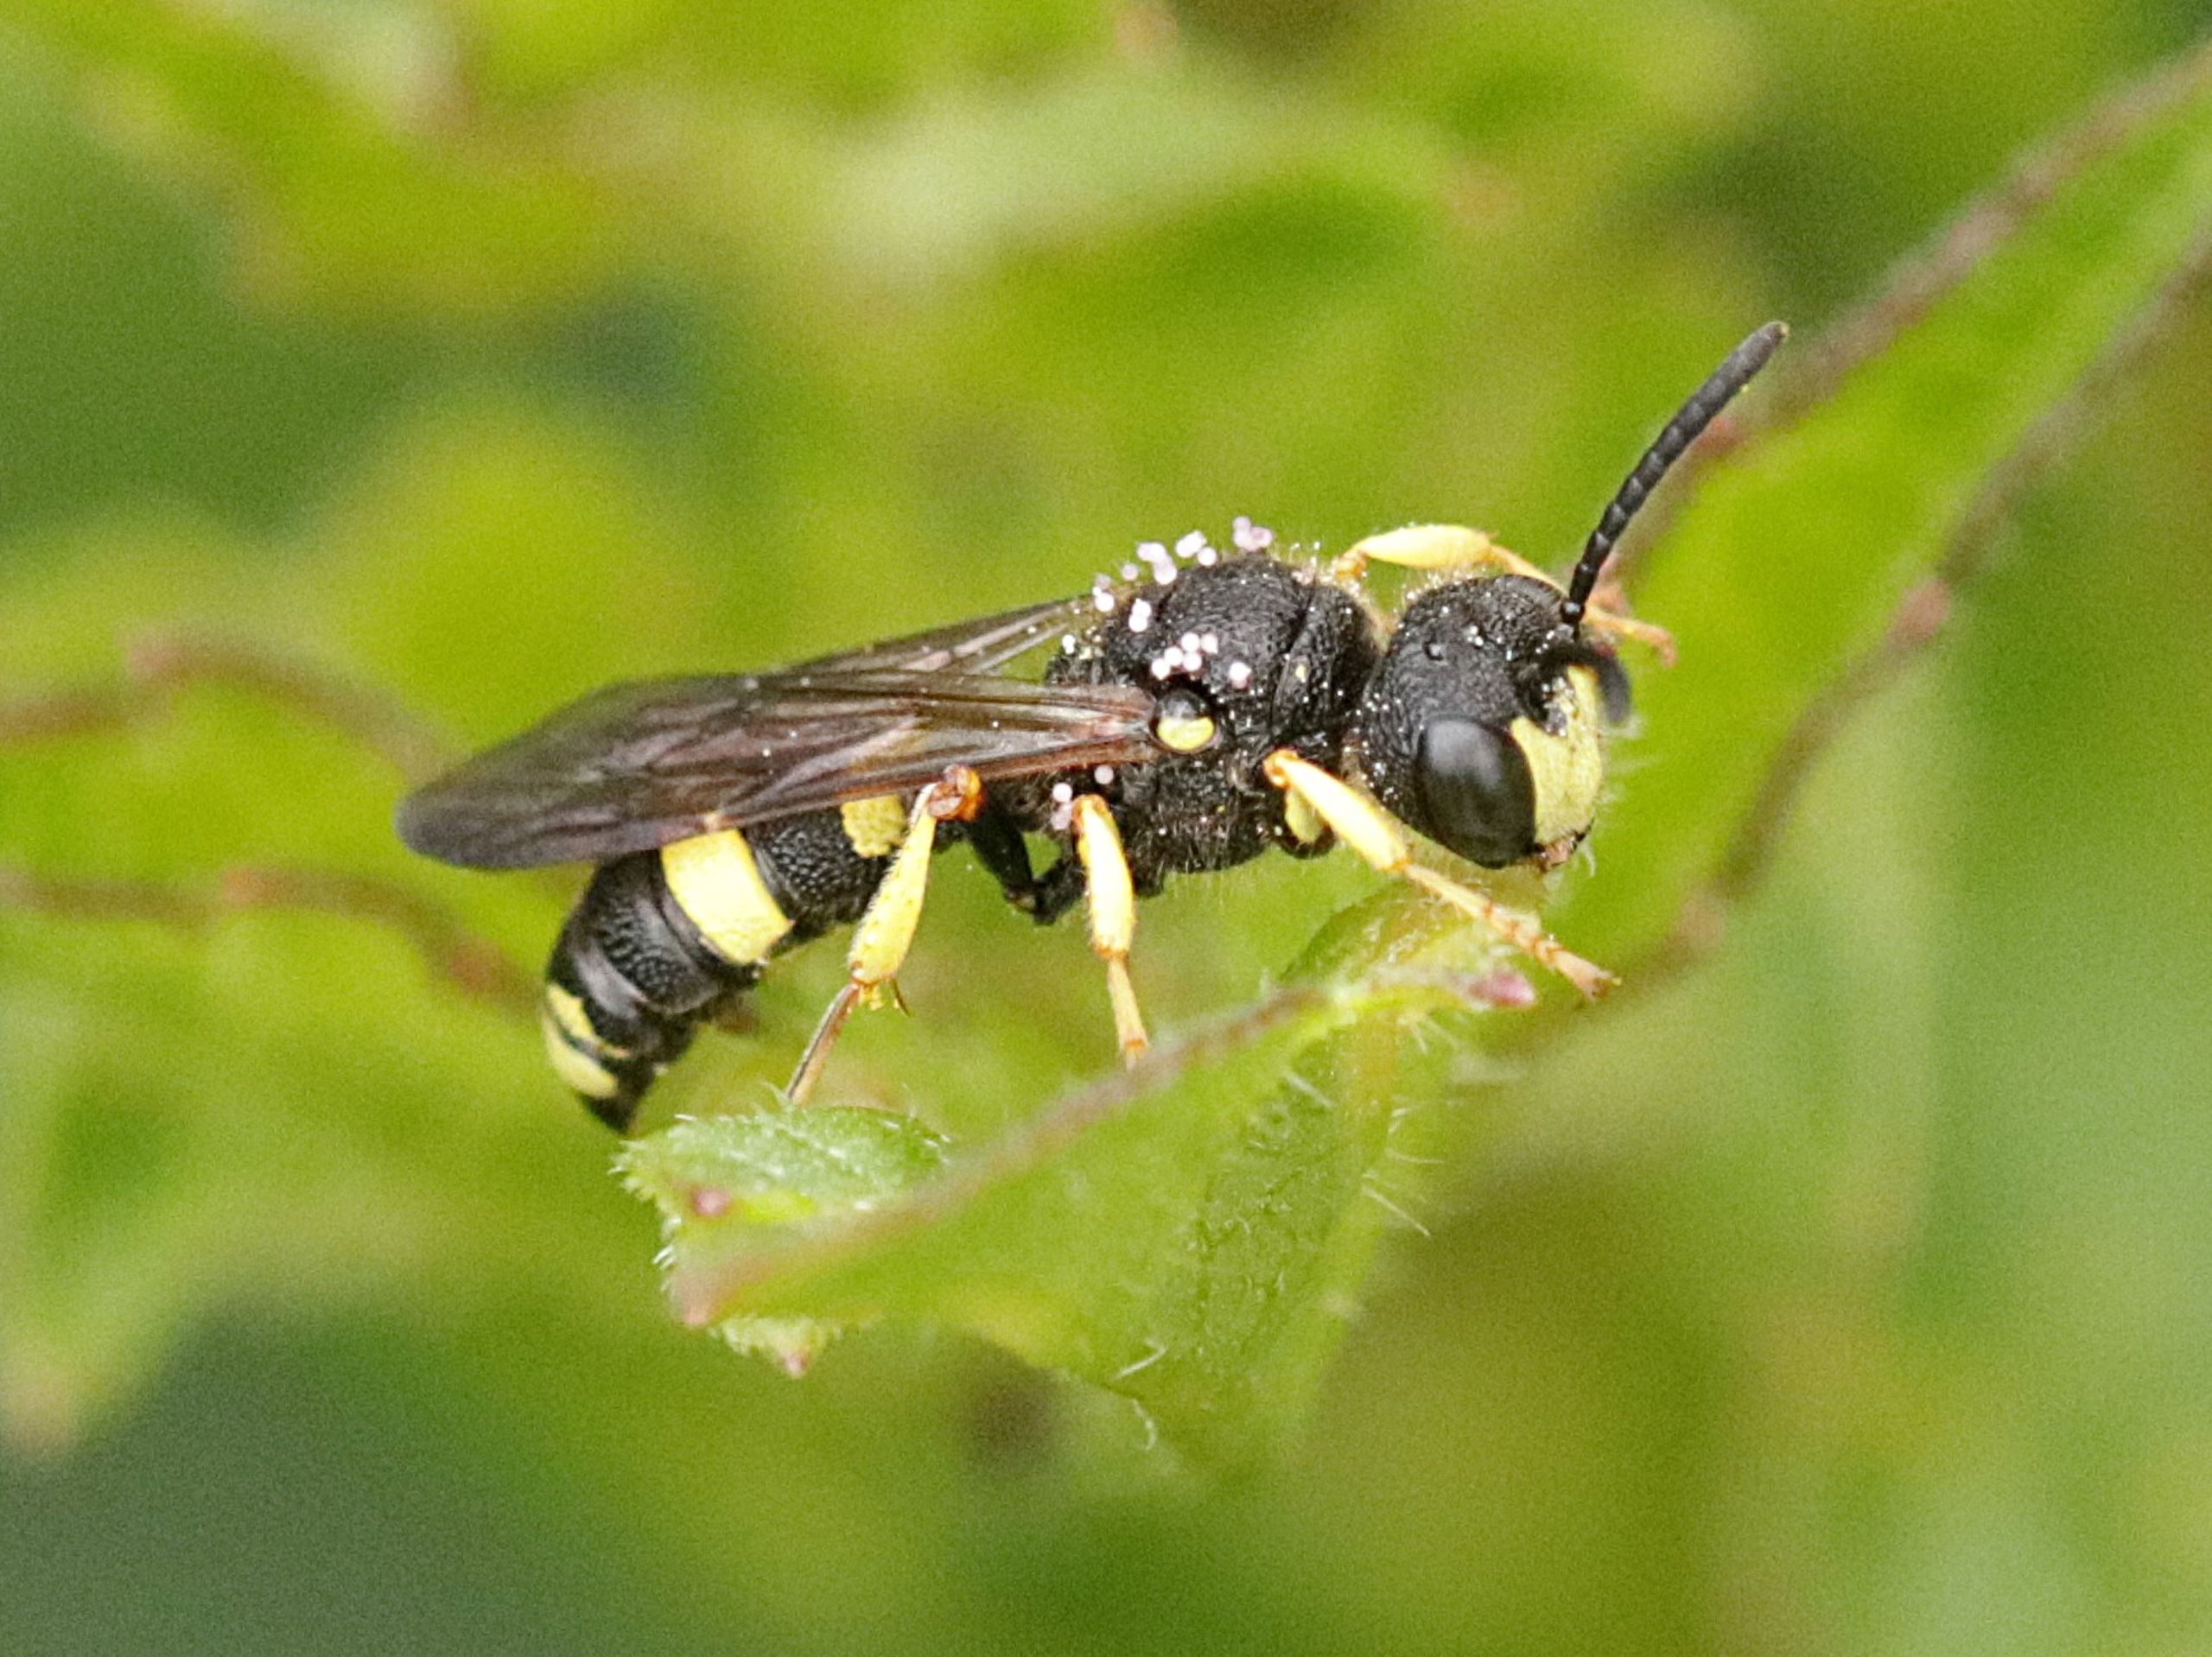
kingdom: Animalia
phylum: Arthropoda
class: Insecta
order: Hymenoptera
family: Crabronidae
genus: Cerceris
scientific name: Cerceris rybyensis
